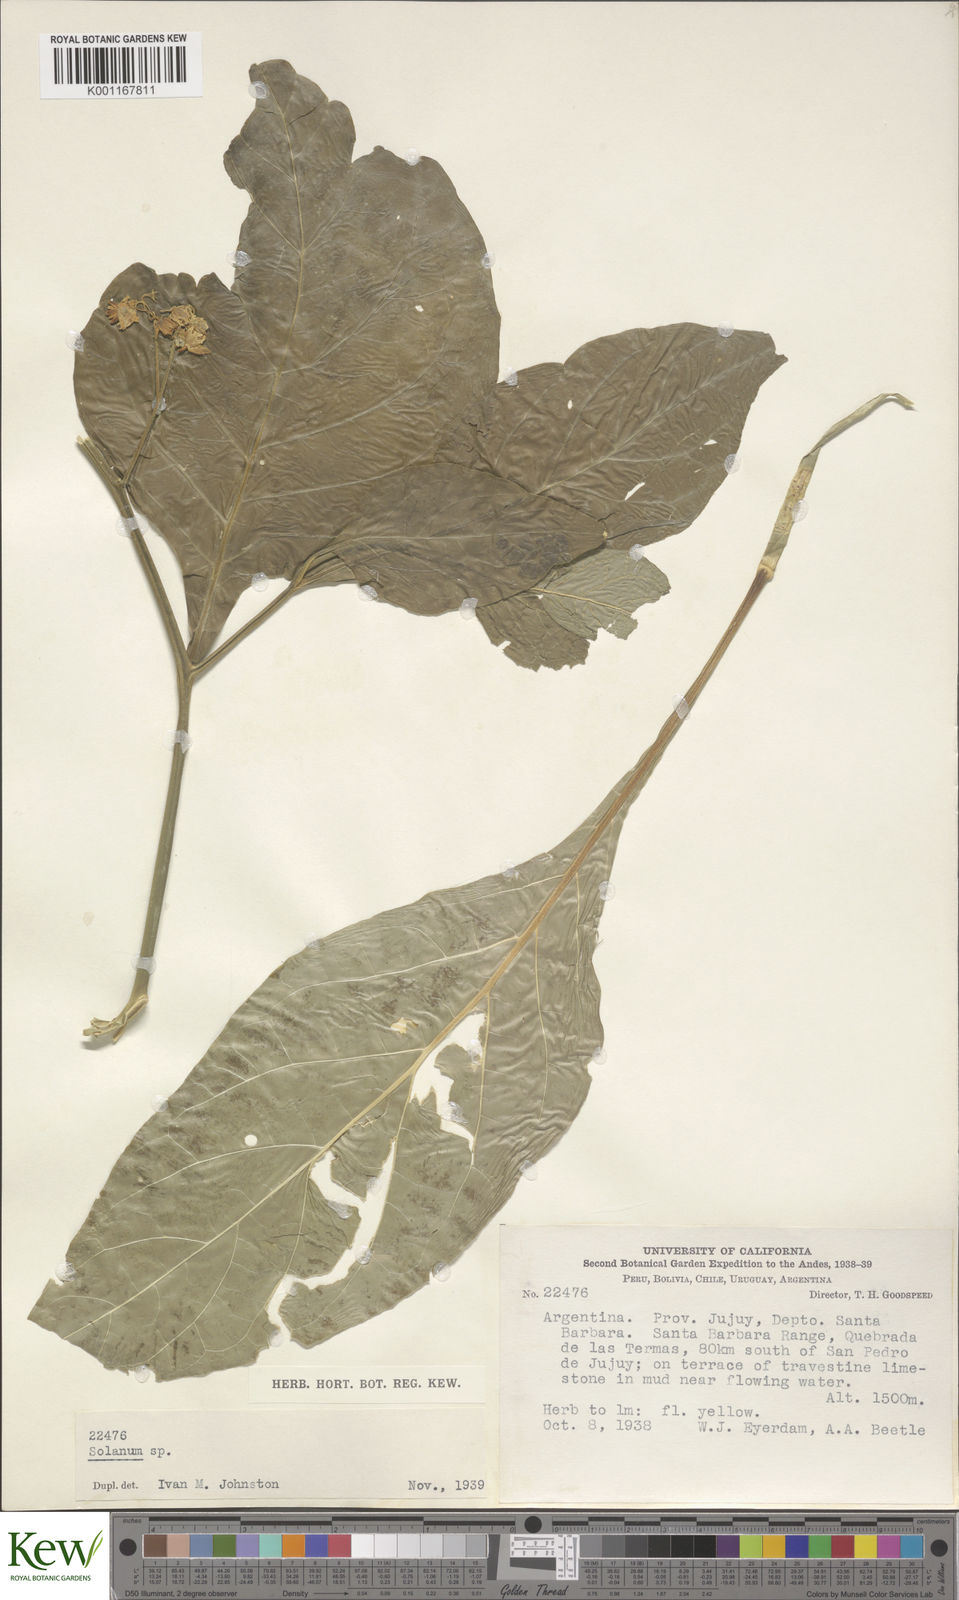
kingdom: Plantae
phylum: Tracheophyta
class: Magnoliopsida
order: Solanales
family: Solanaceae
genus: Solanum
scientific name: Solanum huayavillense
